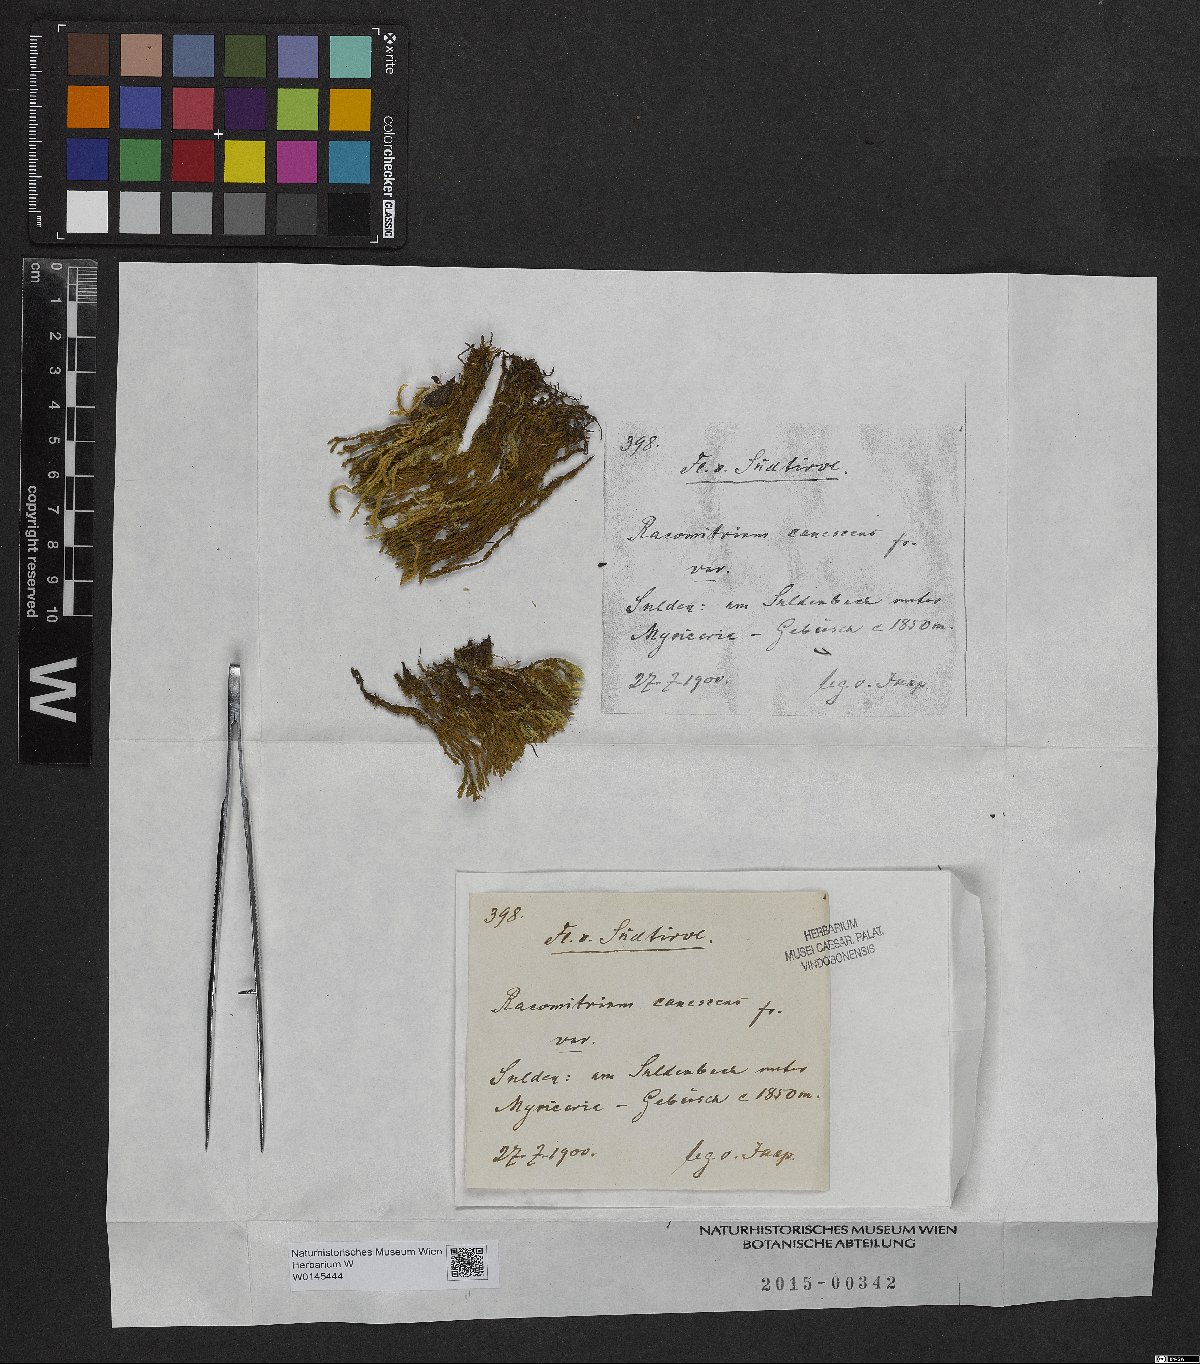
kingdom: Plantae
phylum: Bryophyta
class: Bryopsida
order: Grimmiales
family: Grimmiaceae
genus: Niphotrichum
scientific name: Niphotrichum canescens
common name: Hoary fringe-moss
